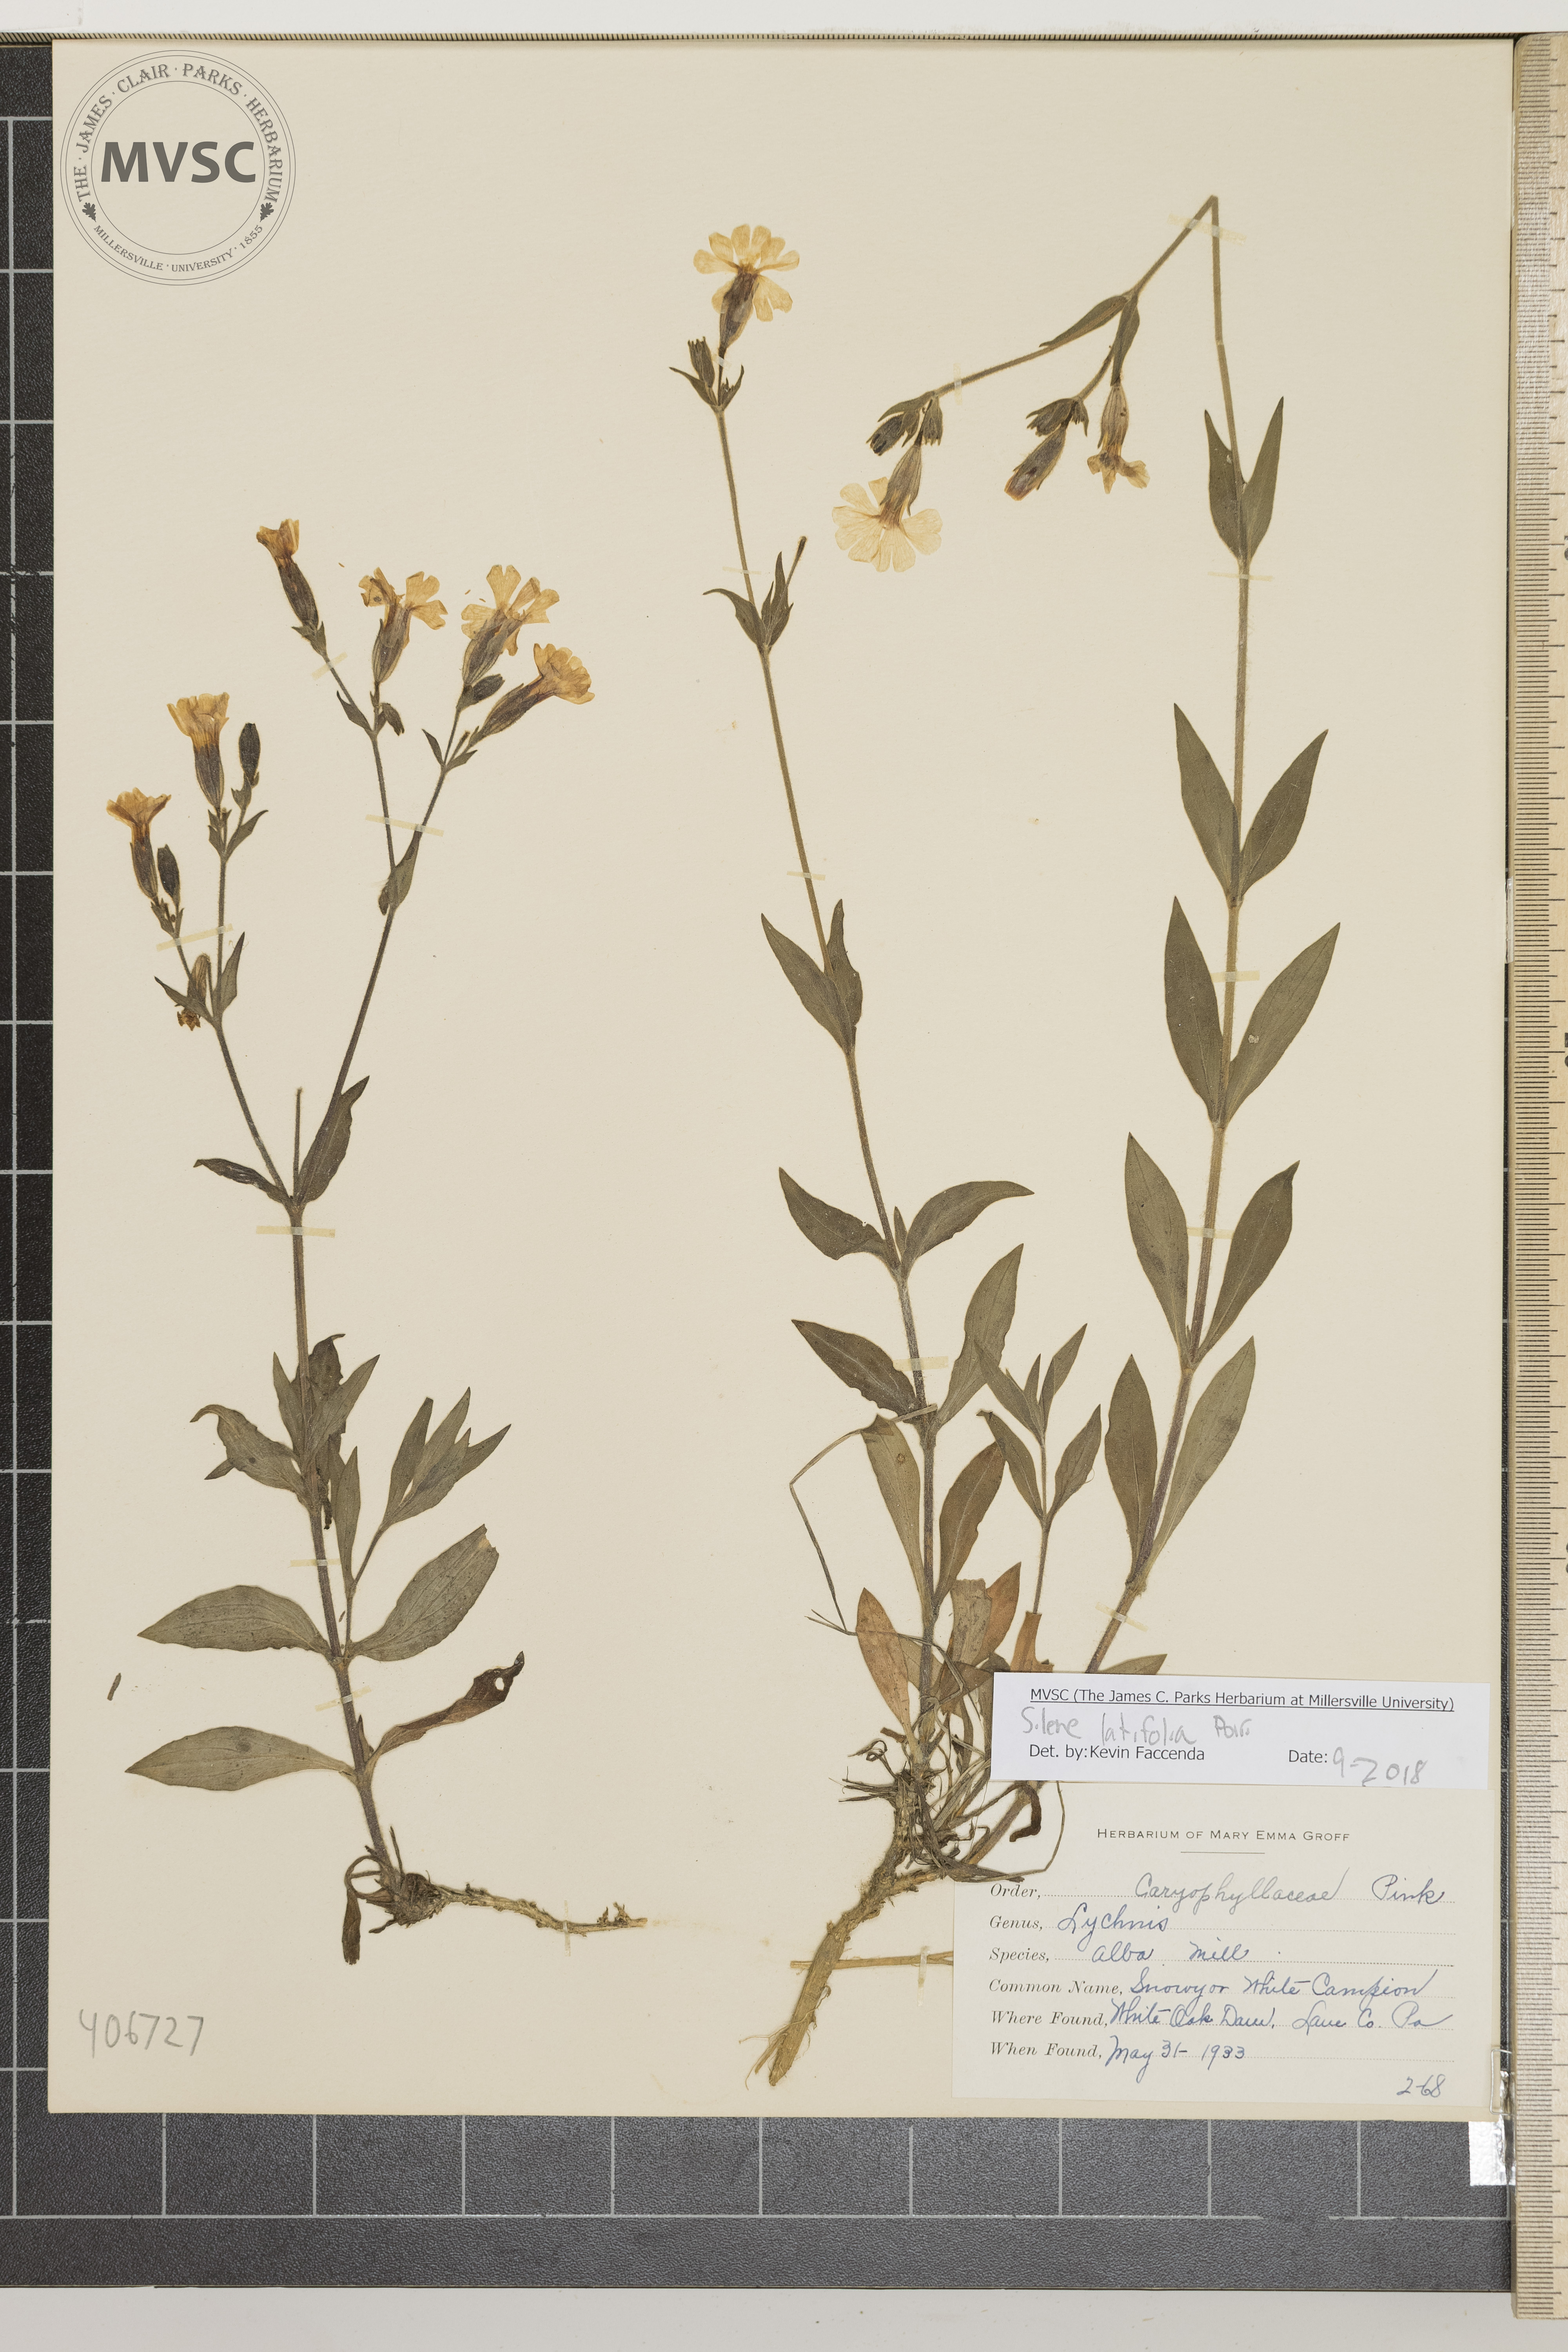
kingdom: Plantae
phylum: Tracheophyta
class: Magnoliopsida
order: Caryophyllales
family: Caryophyllaceae
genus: Silene
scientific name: Silene latifolia
